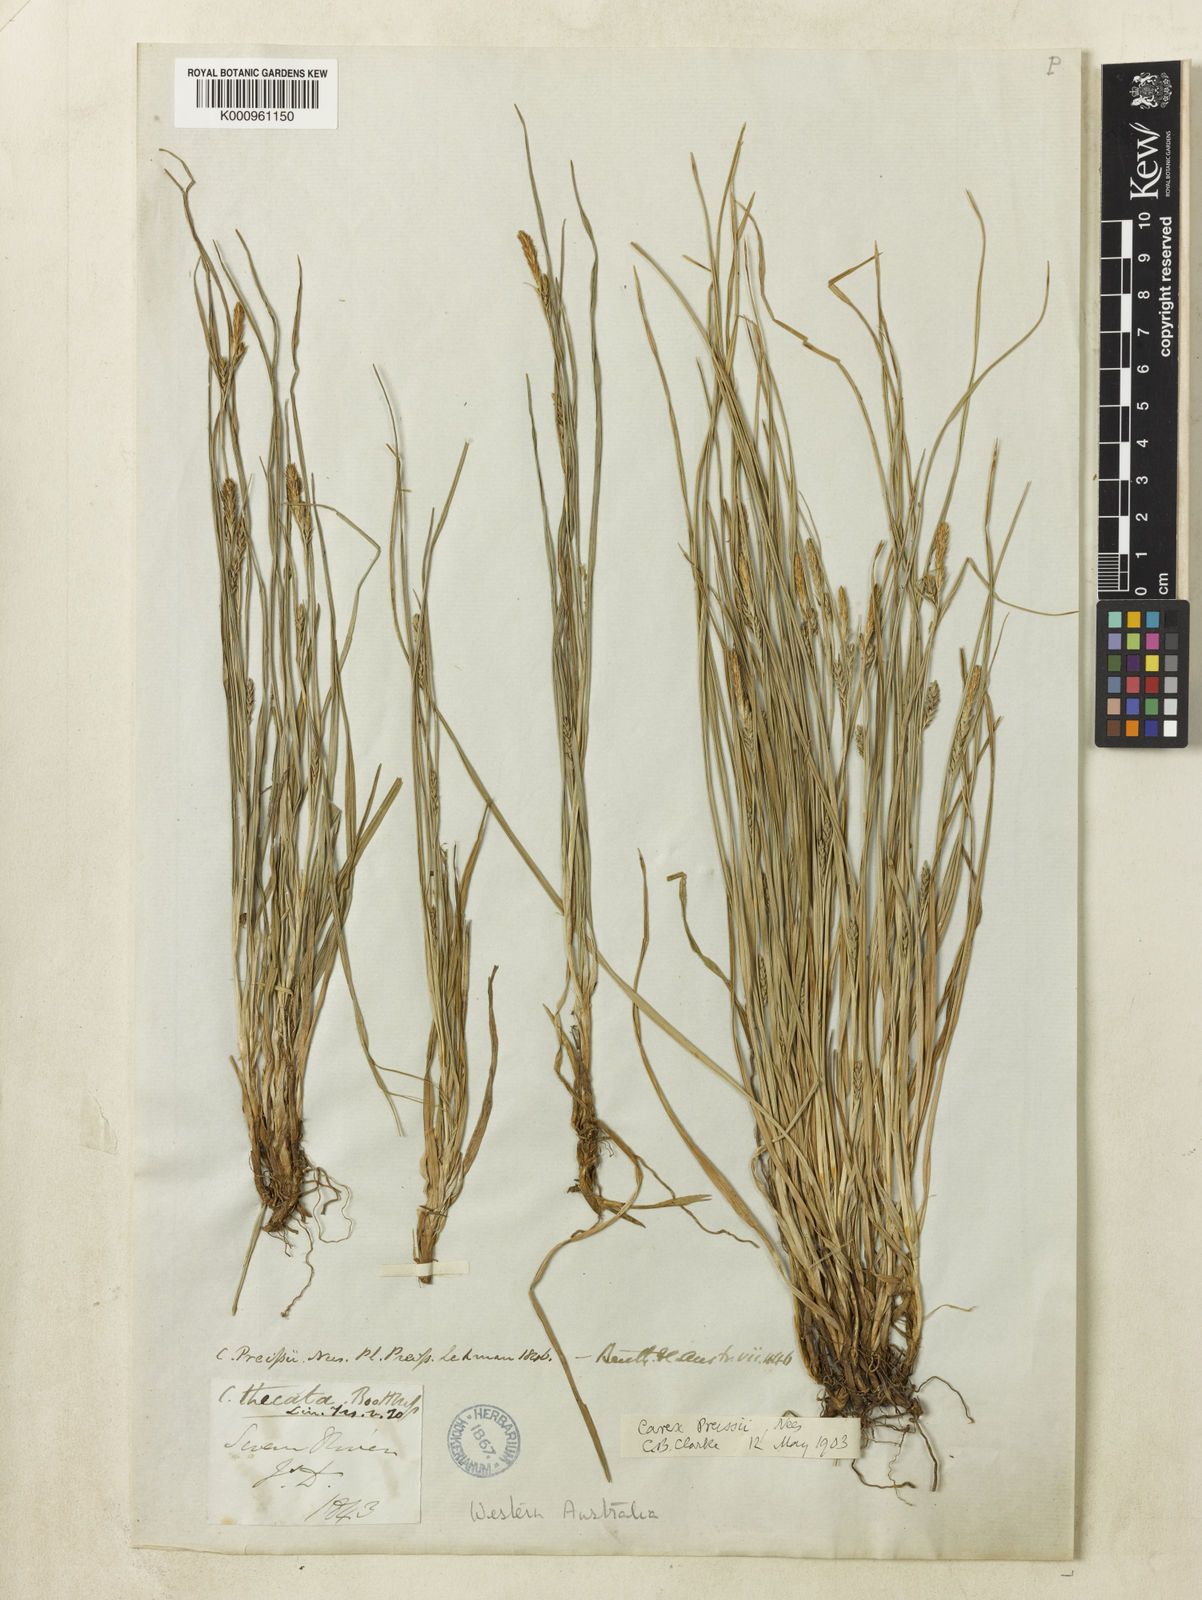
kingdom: Plantae
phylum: Tracheophyta
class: Liliopsida
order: Poales
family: Cyperaceae
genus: Carex
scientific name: Carex preissii
